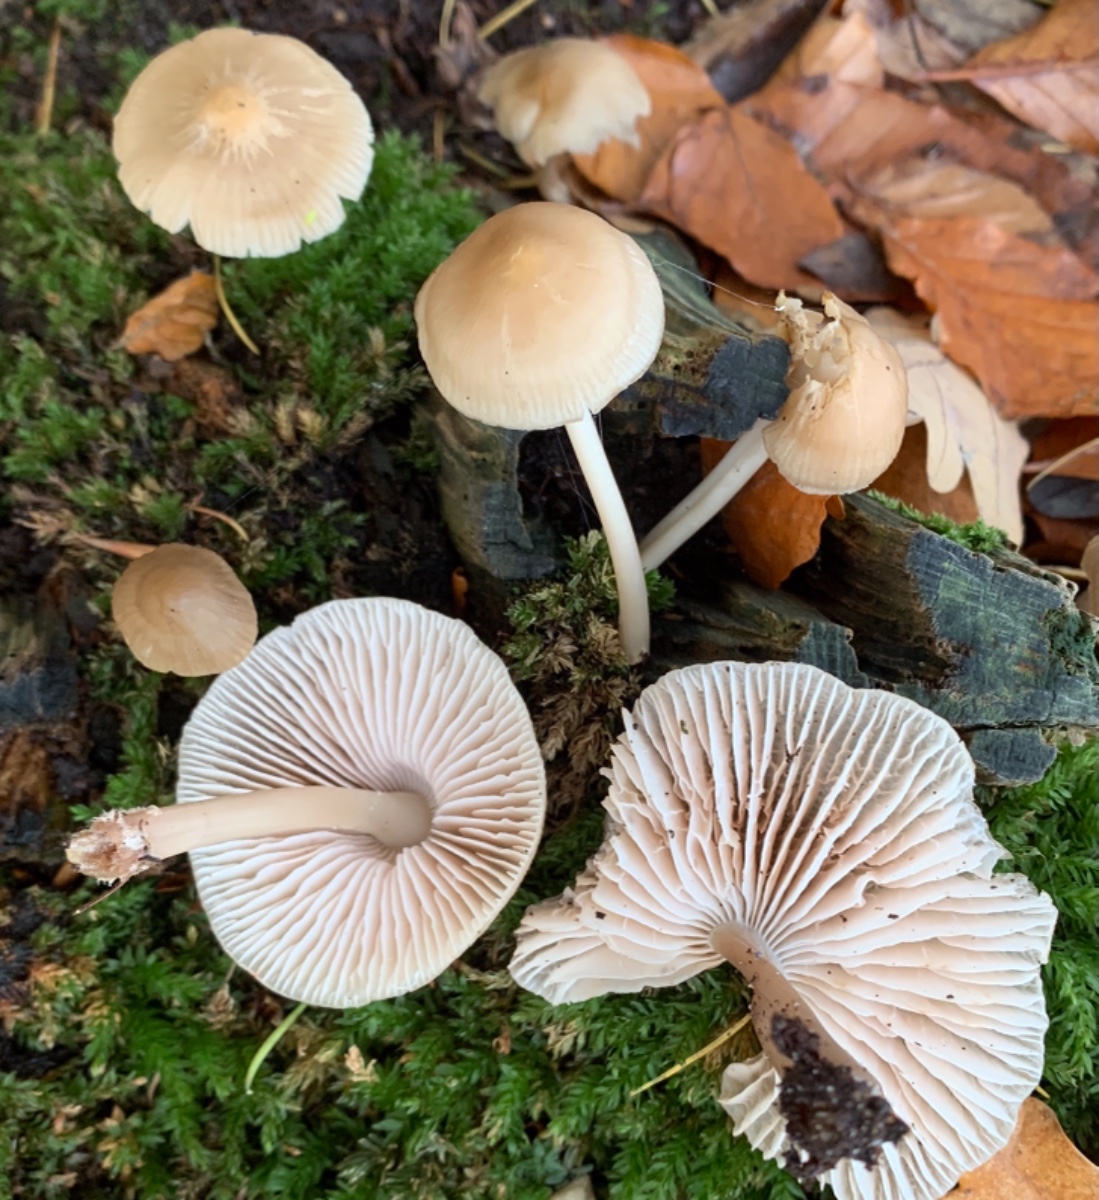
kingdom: Fungi
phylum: Basidiomycota
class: Agaricomycetes
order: Agaricales
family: Mycenaceae
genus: Mycena
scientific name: Mycena galericulata
